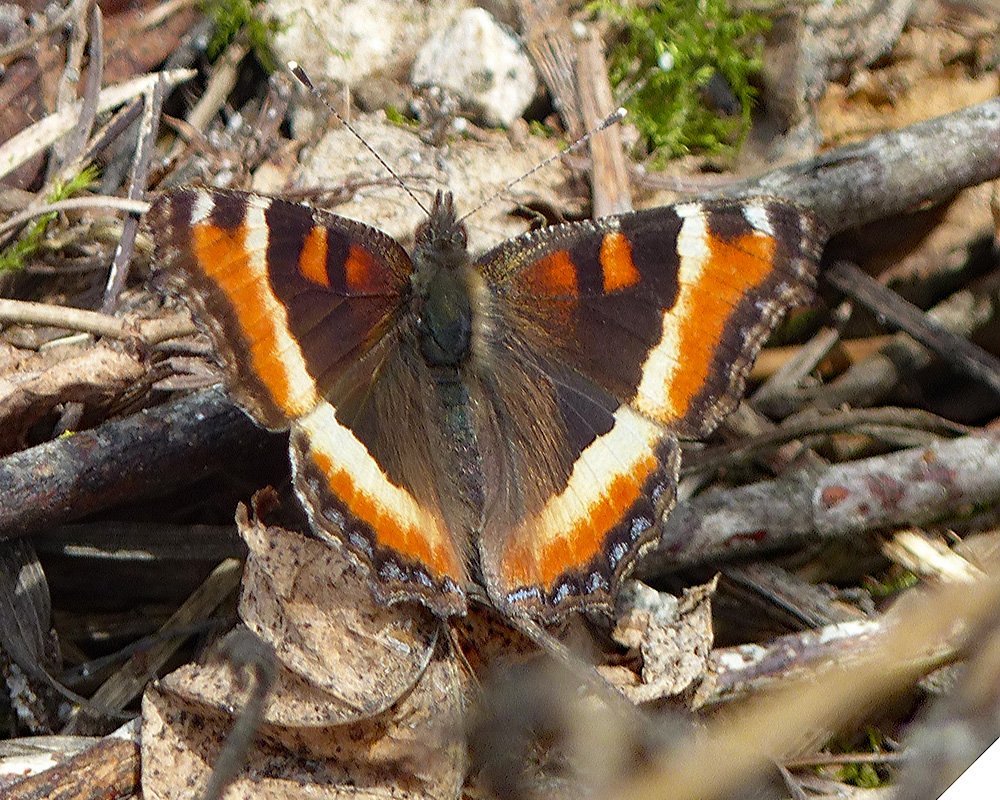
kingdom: Animalia
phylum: Arthropoda
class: Insecta
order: Lepidoptera
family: Nymphalidae
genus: Aglais
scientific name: Aglais milberti
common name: Milbert's Tortoiseshell
